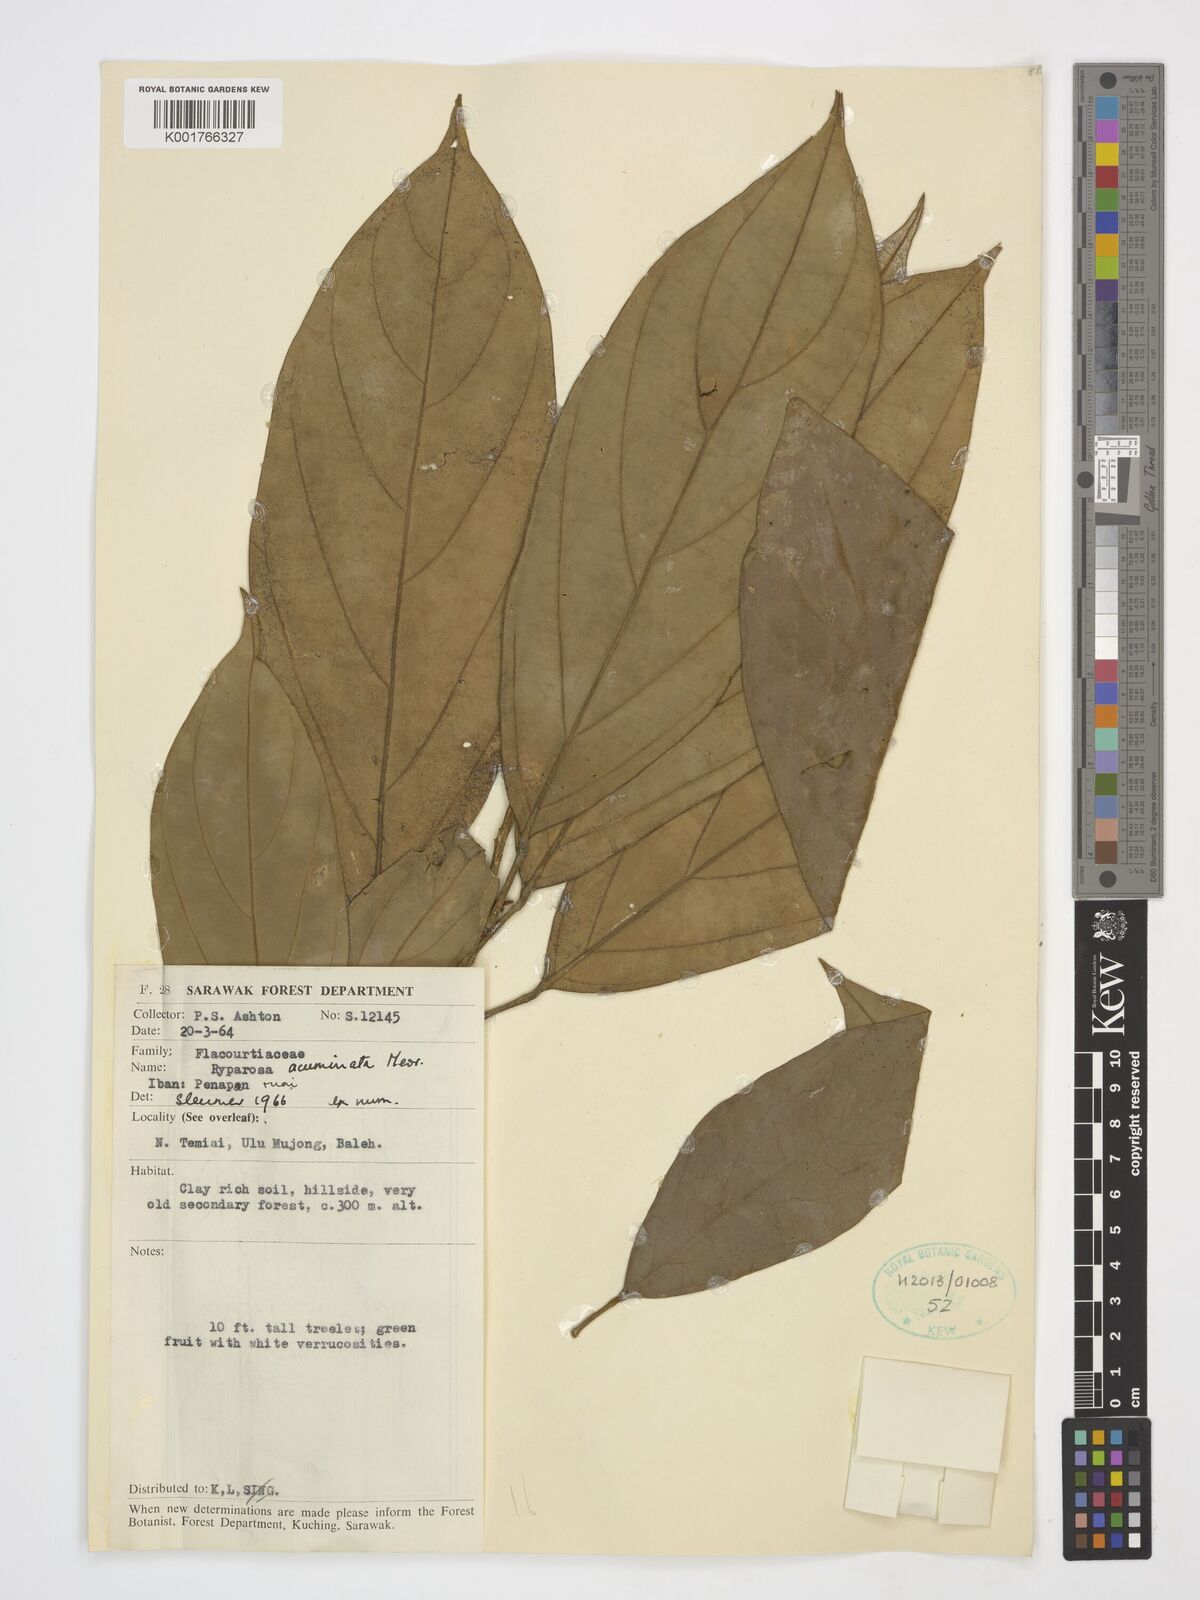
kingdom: Plantae
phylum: Tracheophyta
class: Magnoliopsida
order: Malpighiales
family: Achariaceae
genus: Ryparosa
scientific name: Ryparosa acuminata
